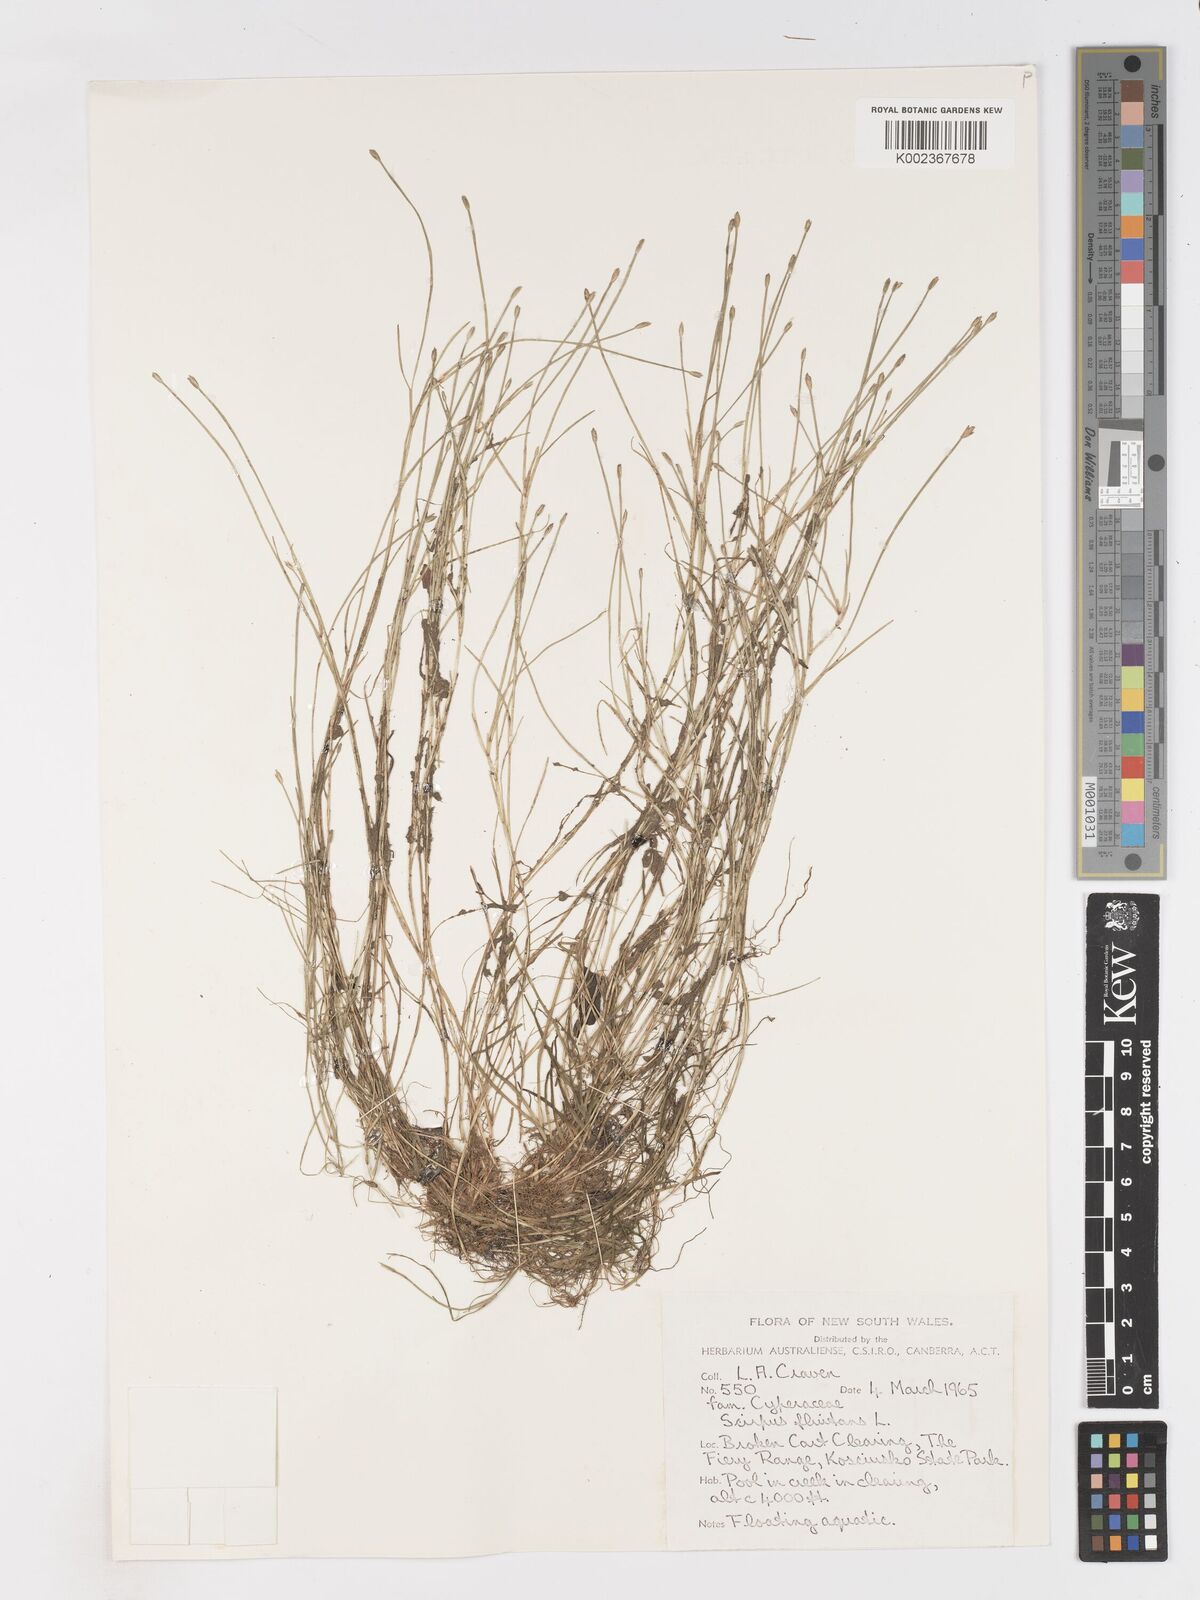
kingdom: Plantae
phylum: Tracheophyta
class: Liliopsida
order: Poales
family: Cyperaceae
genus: Isolepis
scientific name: Isolepis fluitans
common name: Floating club-rush
